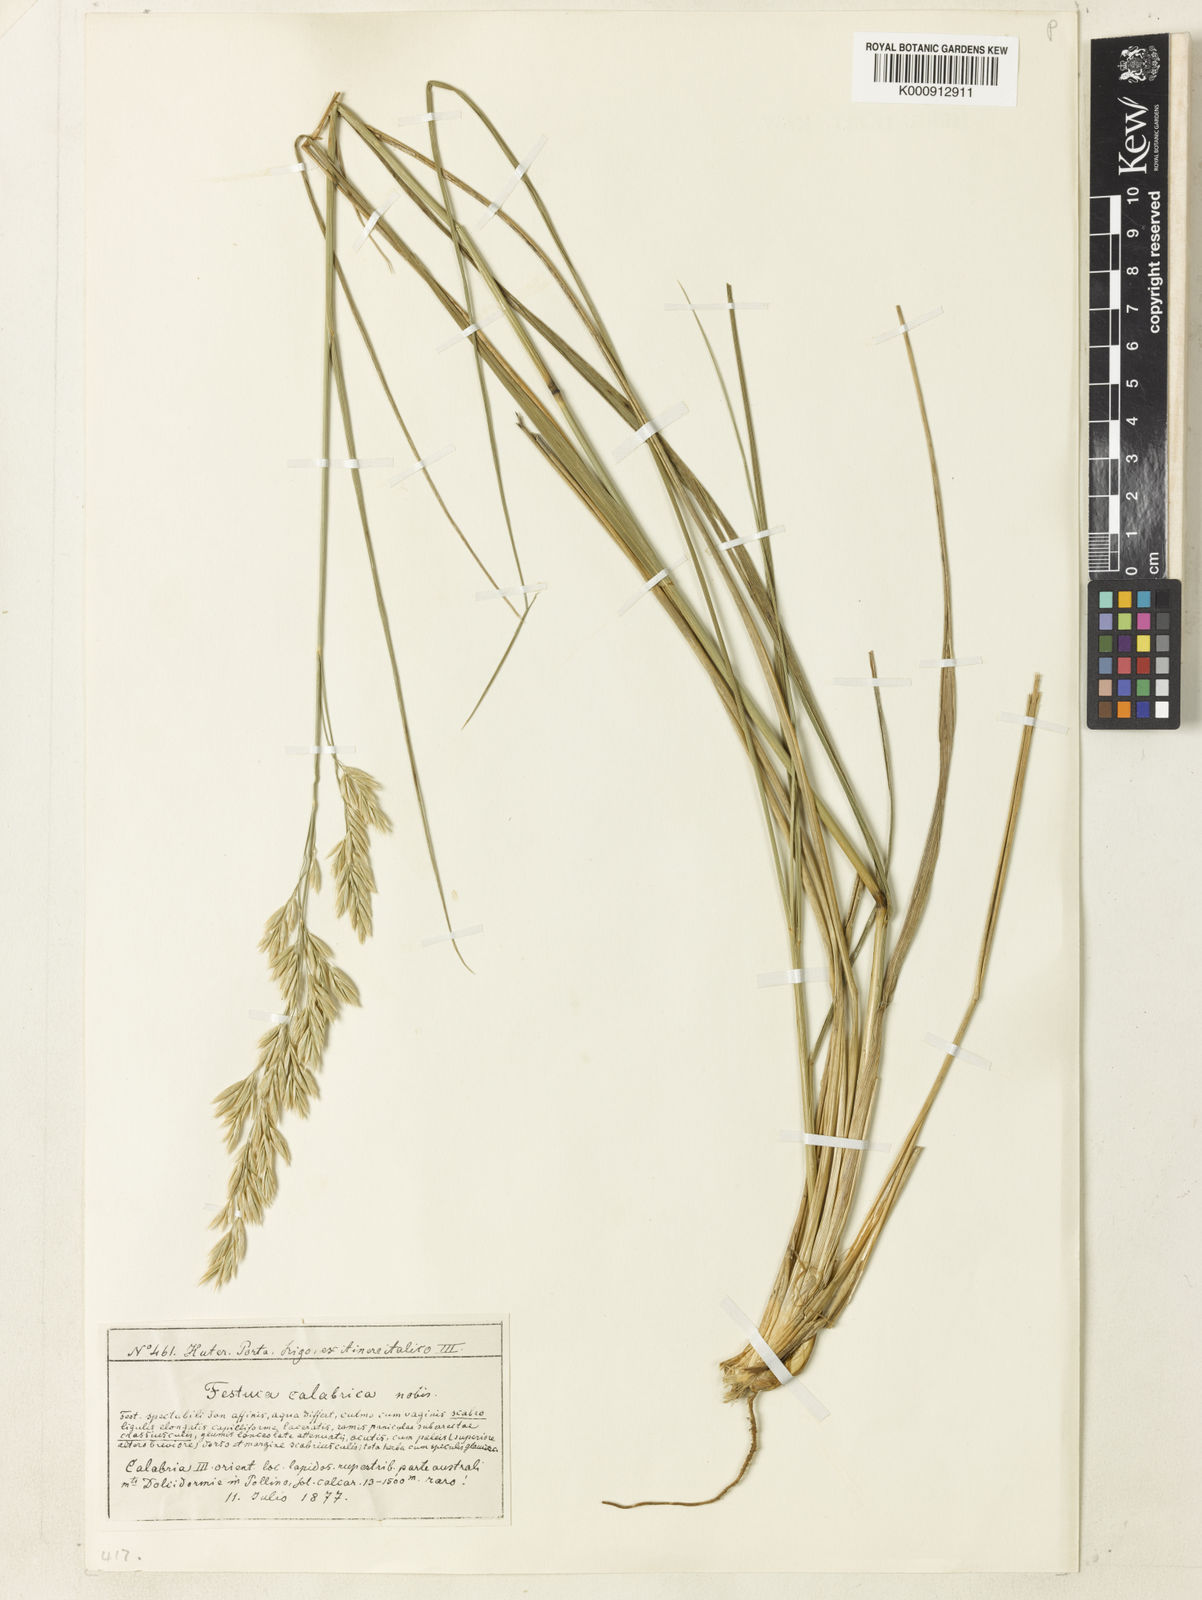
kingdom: Plantae
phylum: Tracheophyta
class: Liliopsida
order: Poales
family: Poaceae
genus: Festuca
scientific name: Festuca
